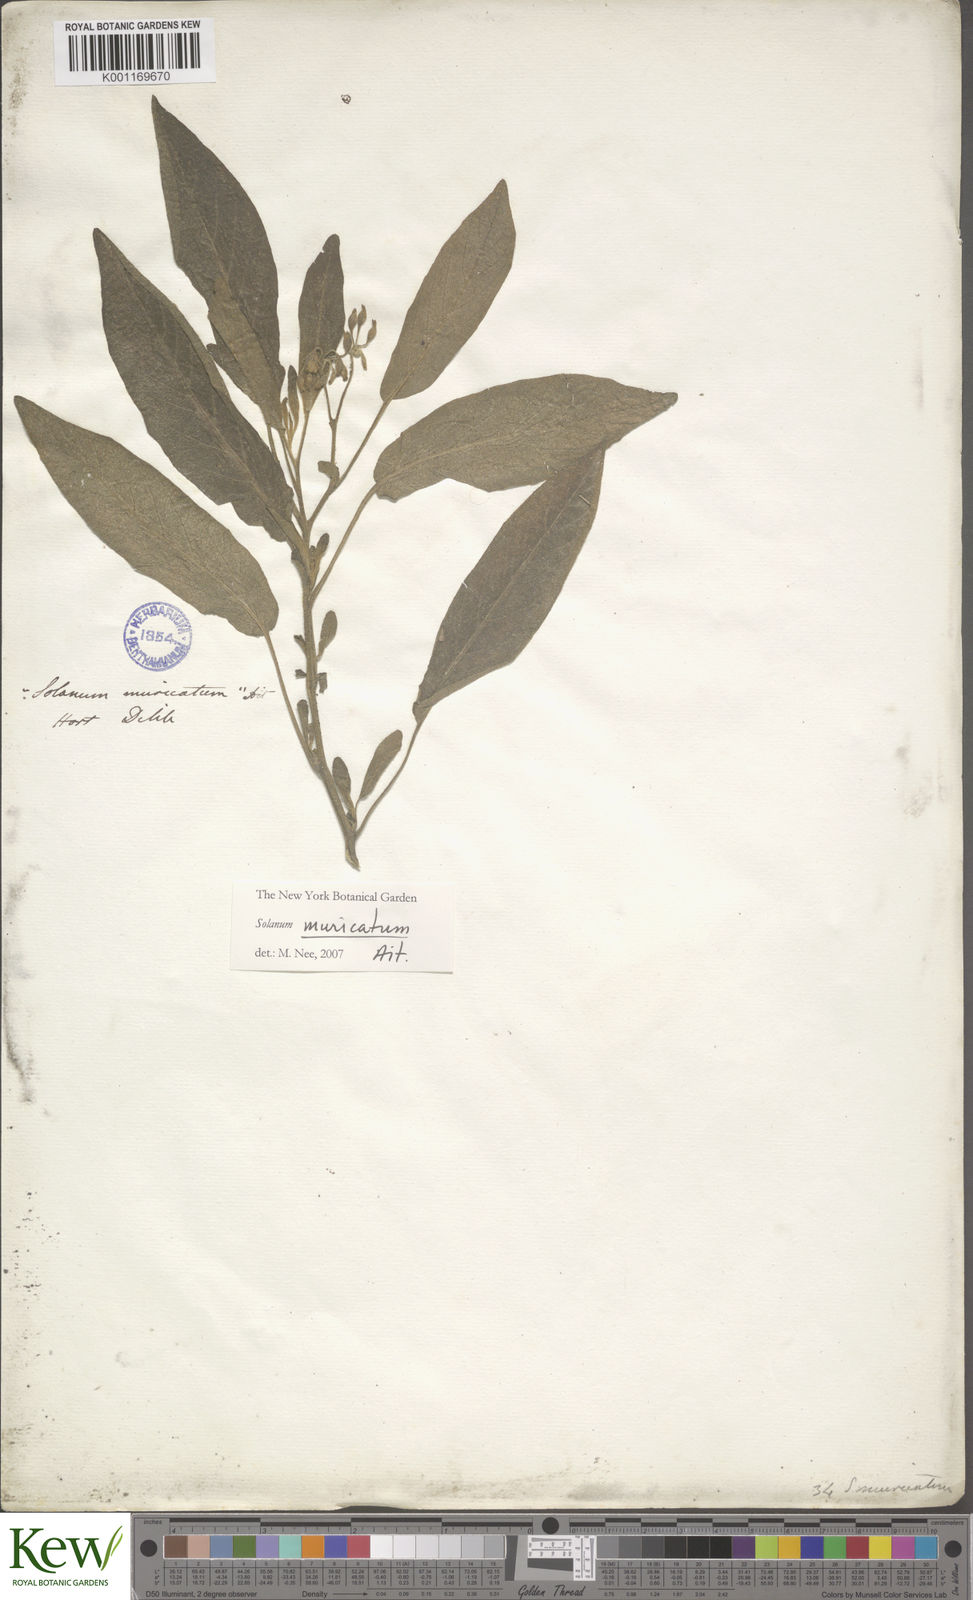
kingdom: Plantae
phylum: Tracheophyta
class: Magnoliopsida
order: Solanales
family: Solanaceae
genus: Solanum
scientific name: Solanum muricatum
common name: Peruvian pepino
